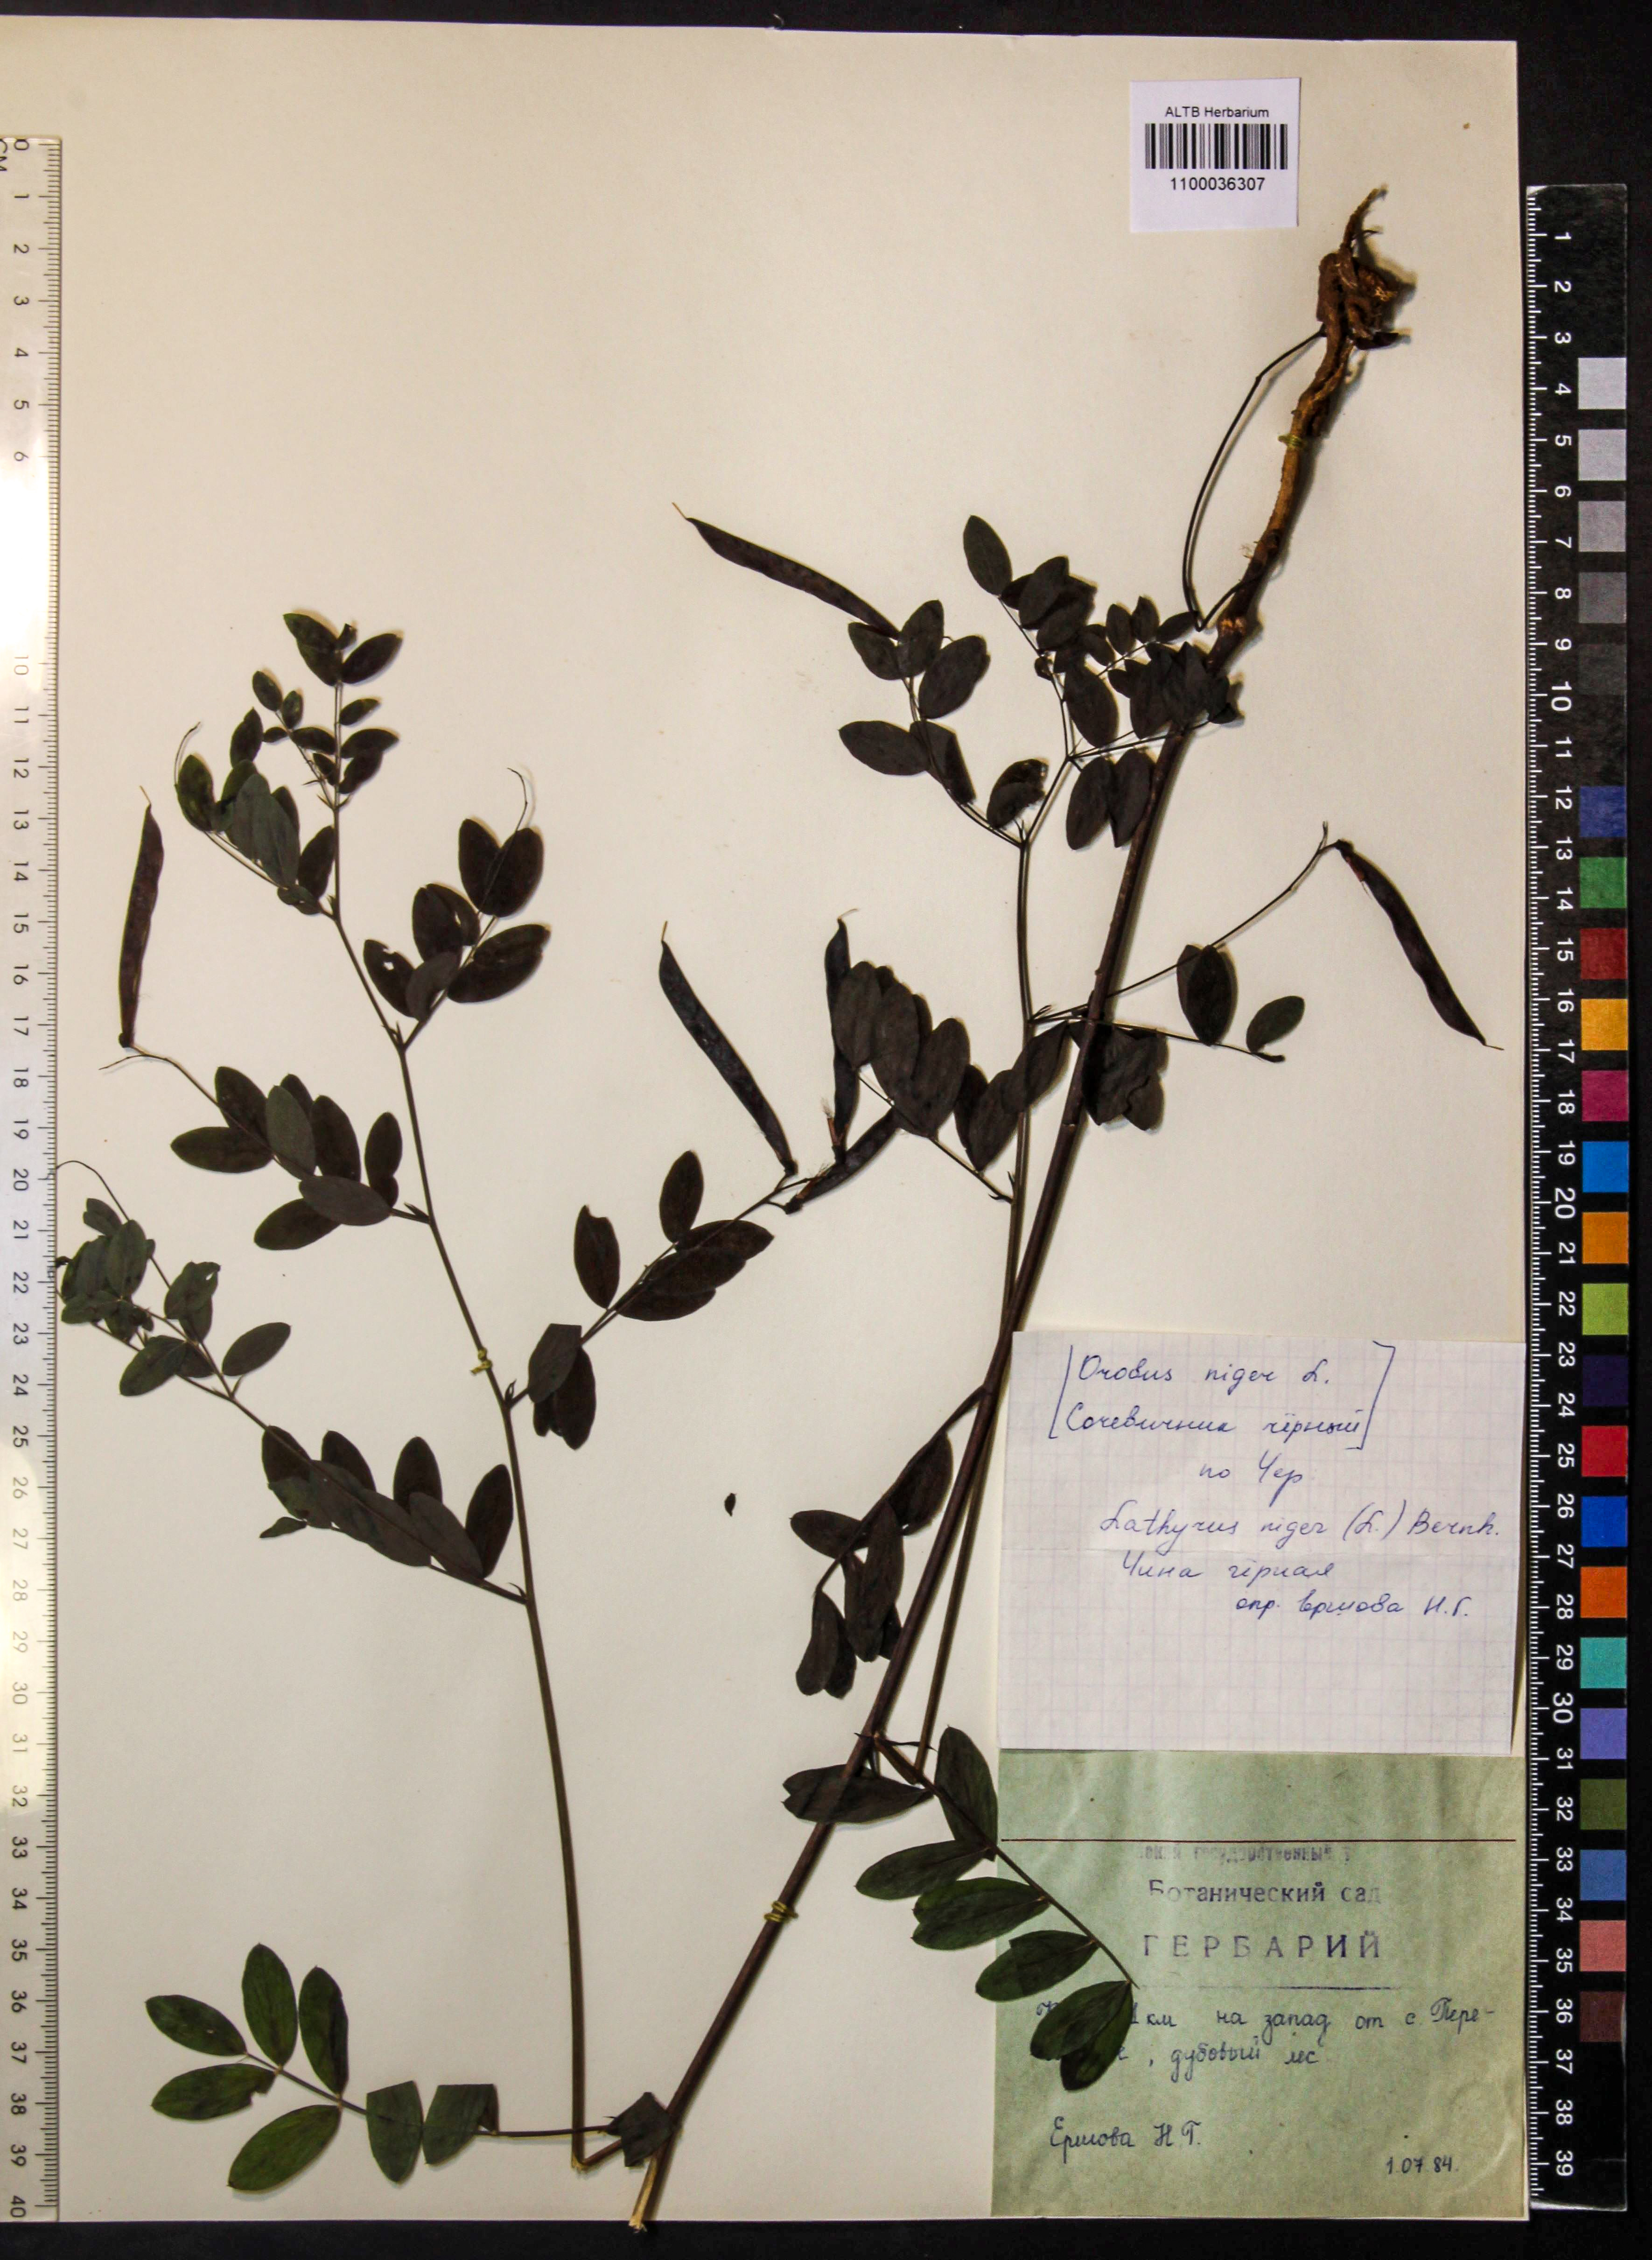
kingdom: Plantae
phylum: Tracheophyta
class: Magnoliopsida
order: Fabales
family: Fabaceae
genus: Lathyrus
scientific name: Lathyrus niger
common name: Black pea
